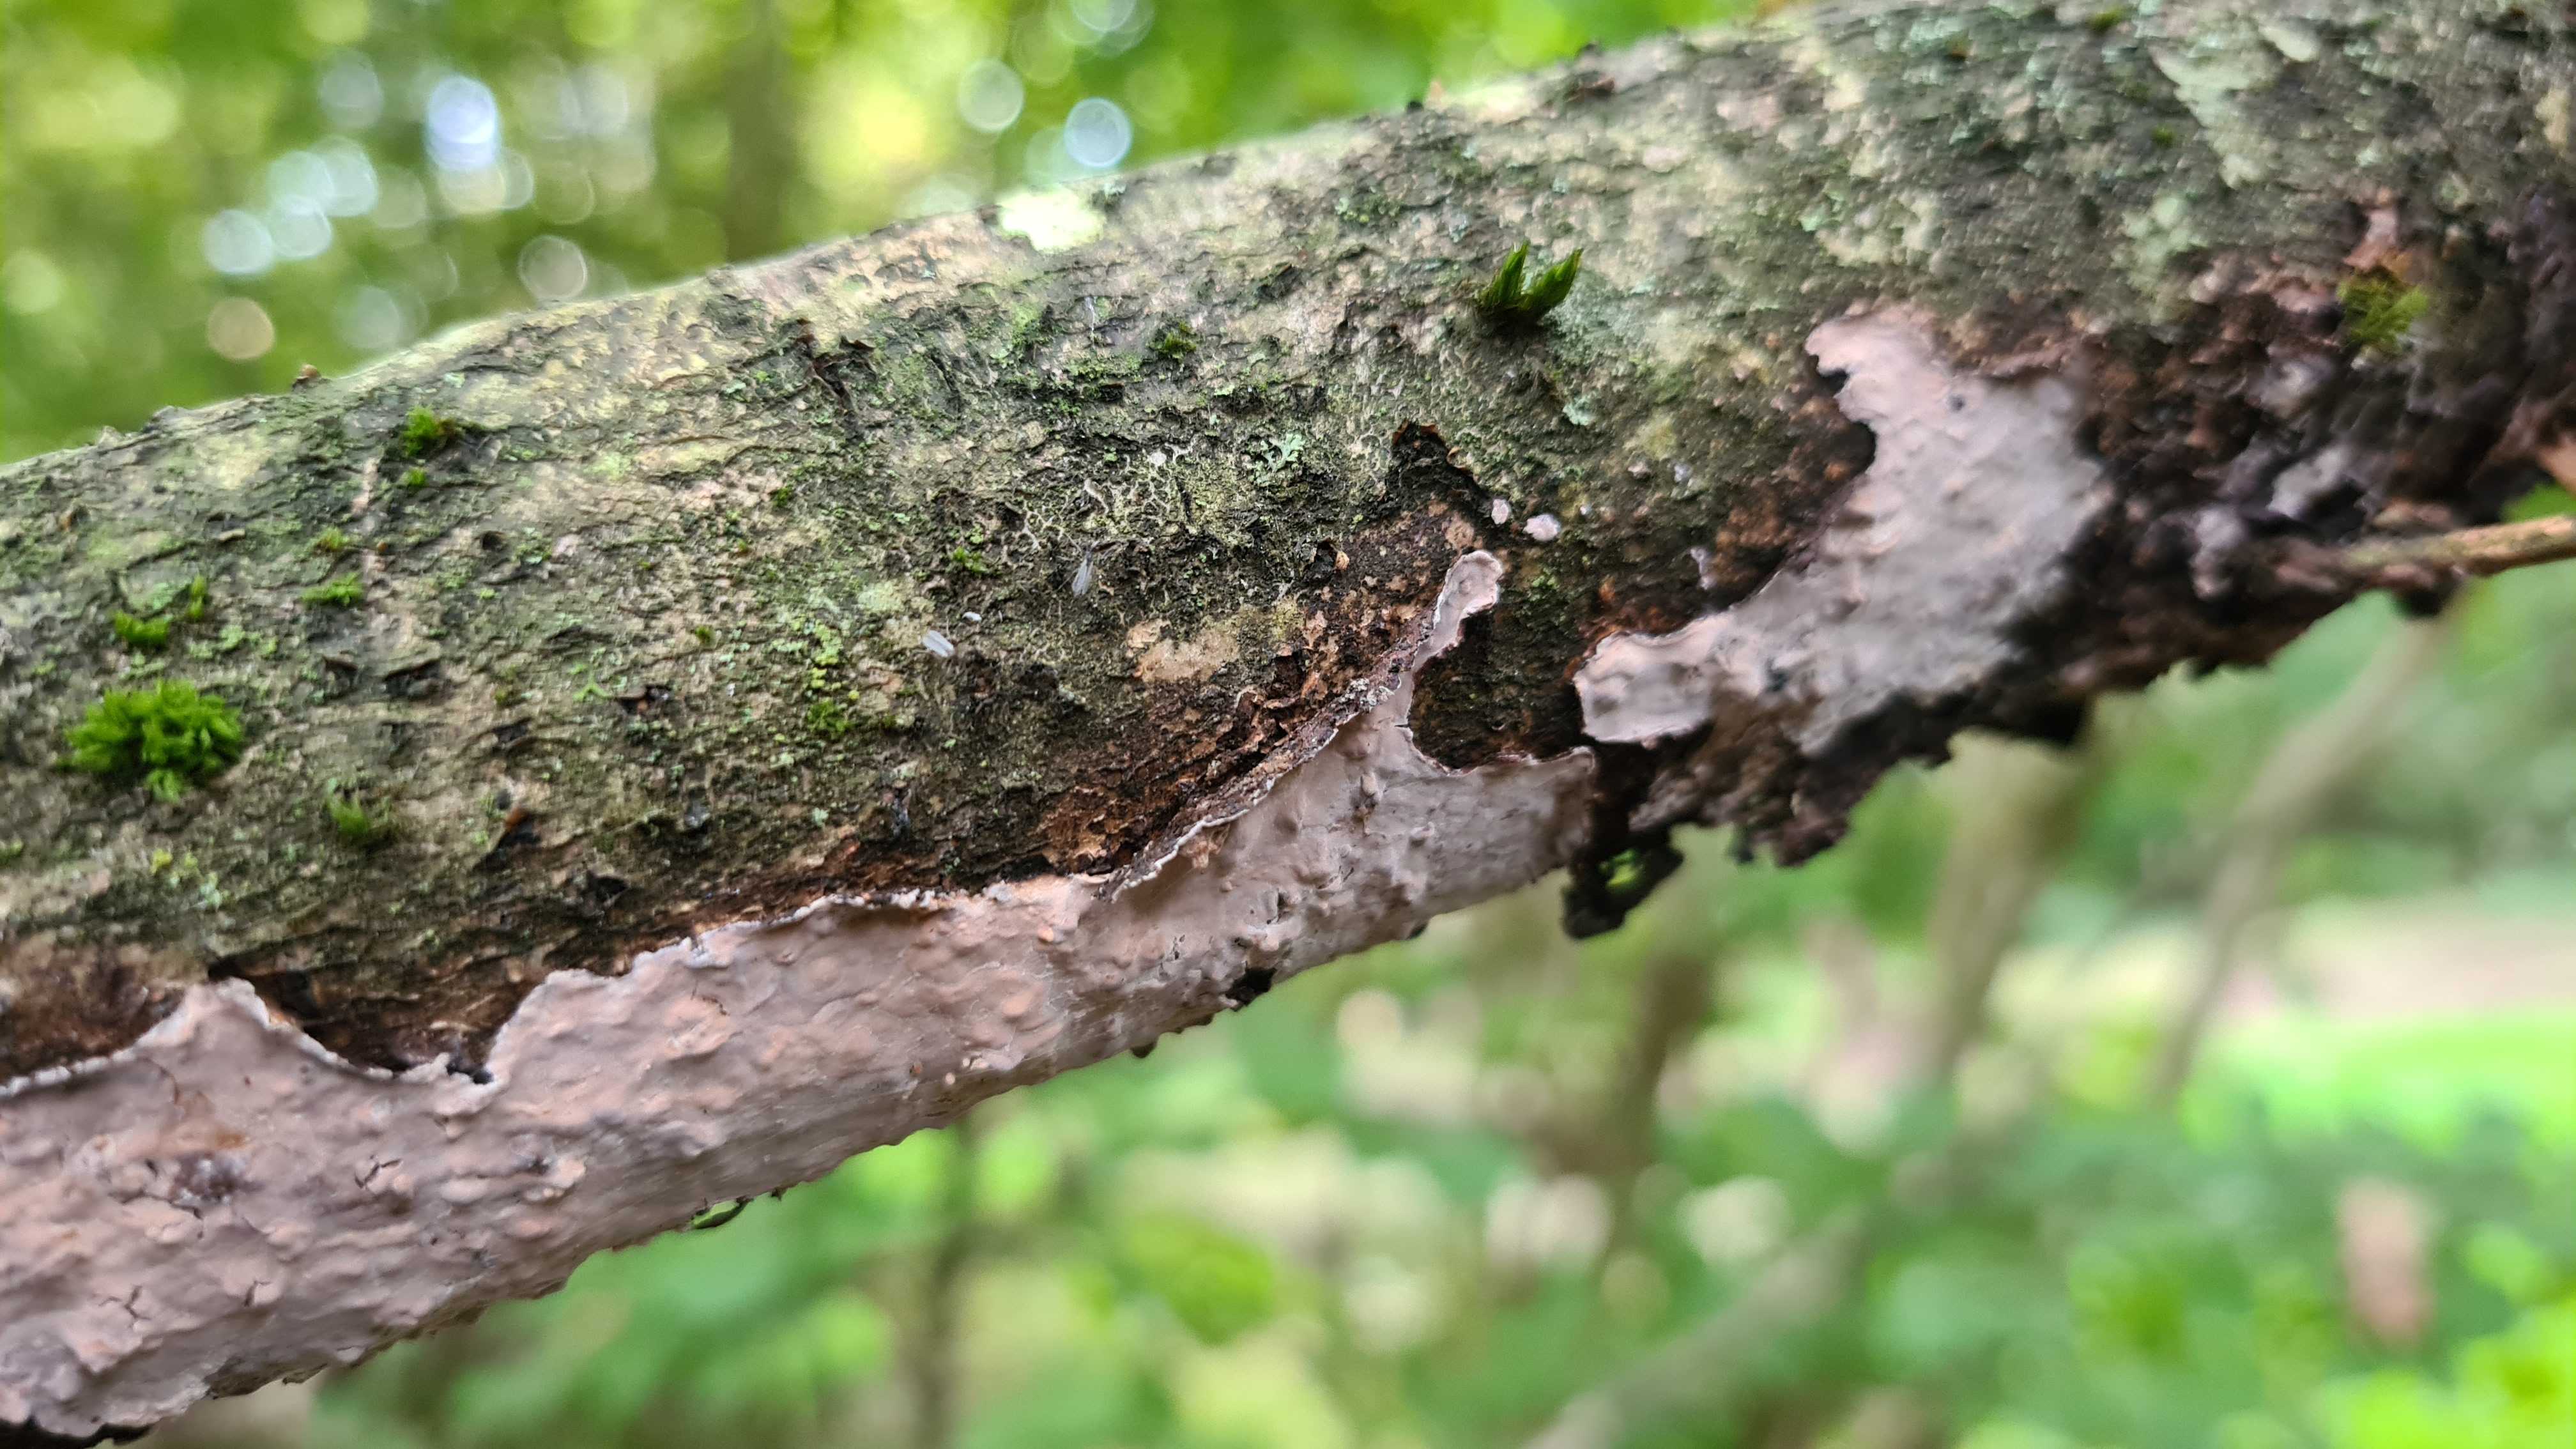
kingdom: Fungi
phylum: Basidiomycota
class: Agaricomycetes
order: Russulales
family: Peniophoraceae
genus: Peniophora
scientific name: Peniophora quercina
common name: ege-voksskind
